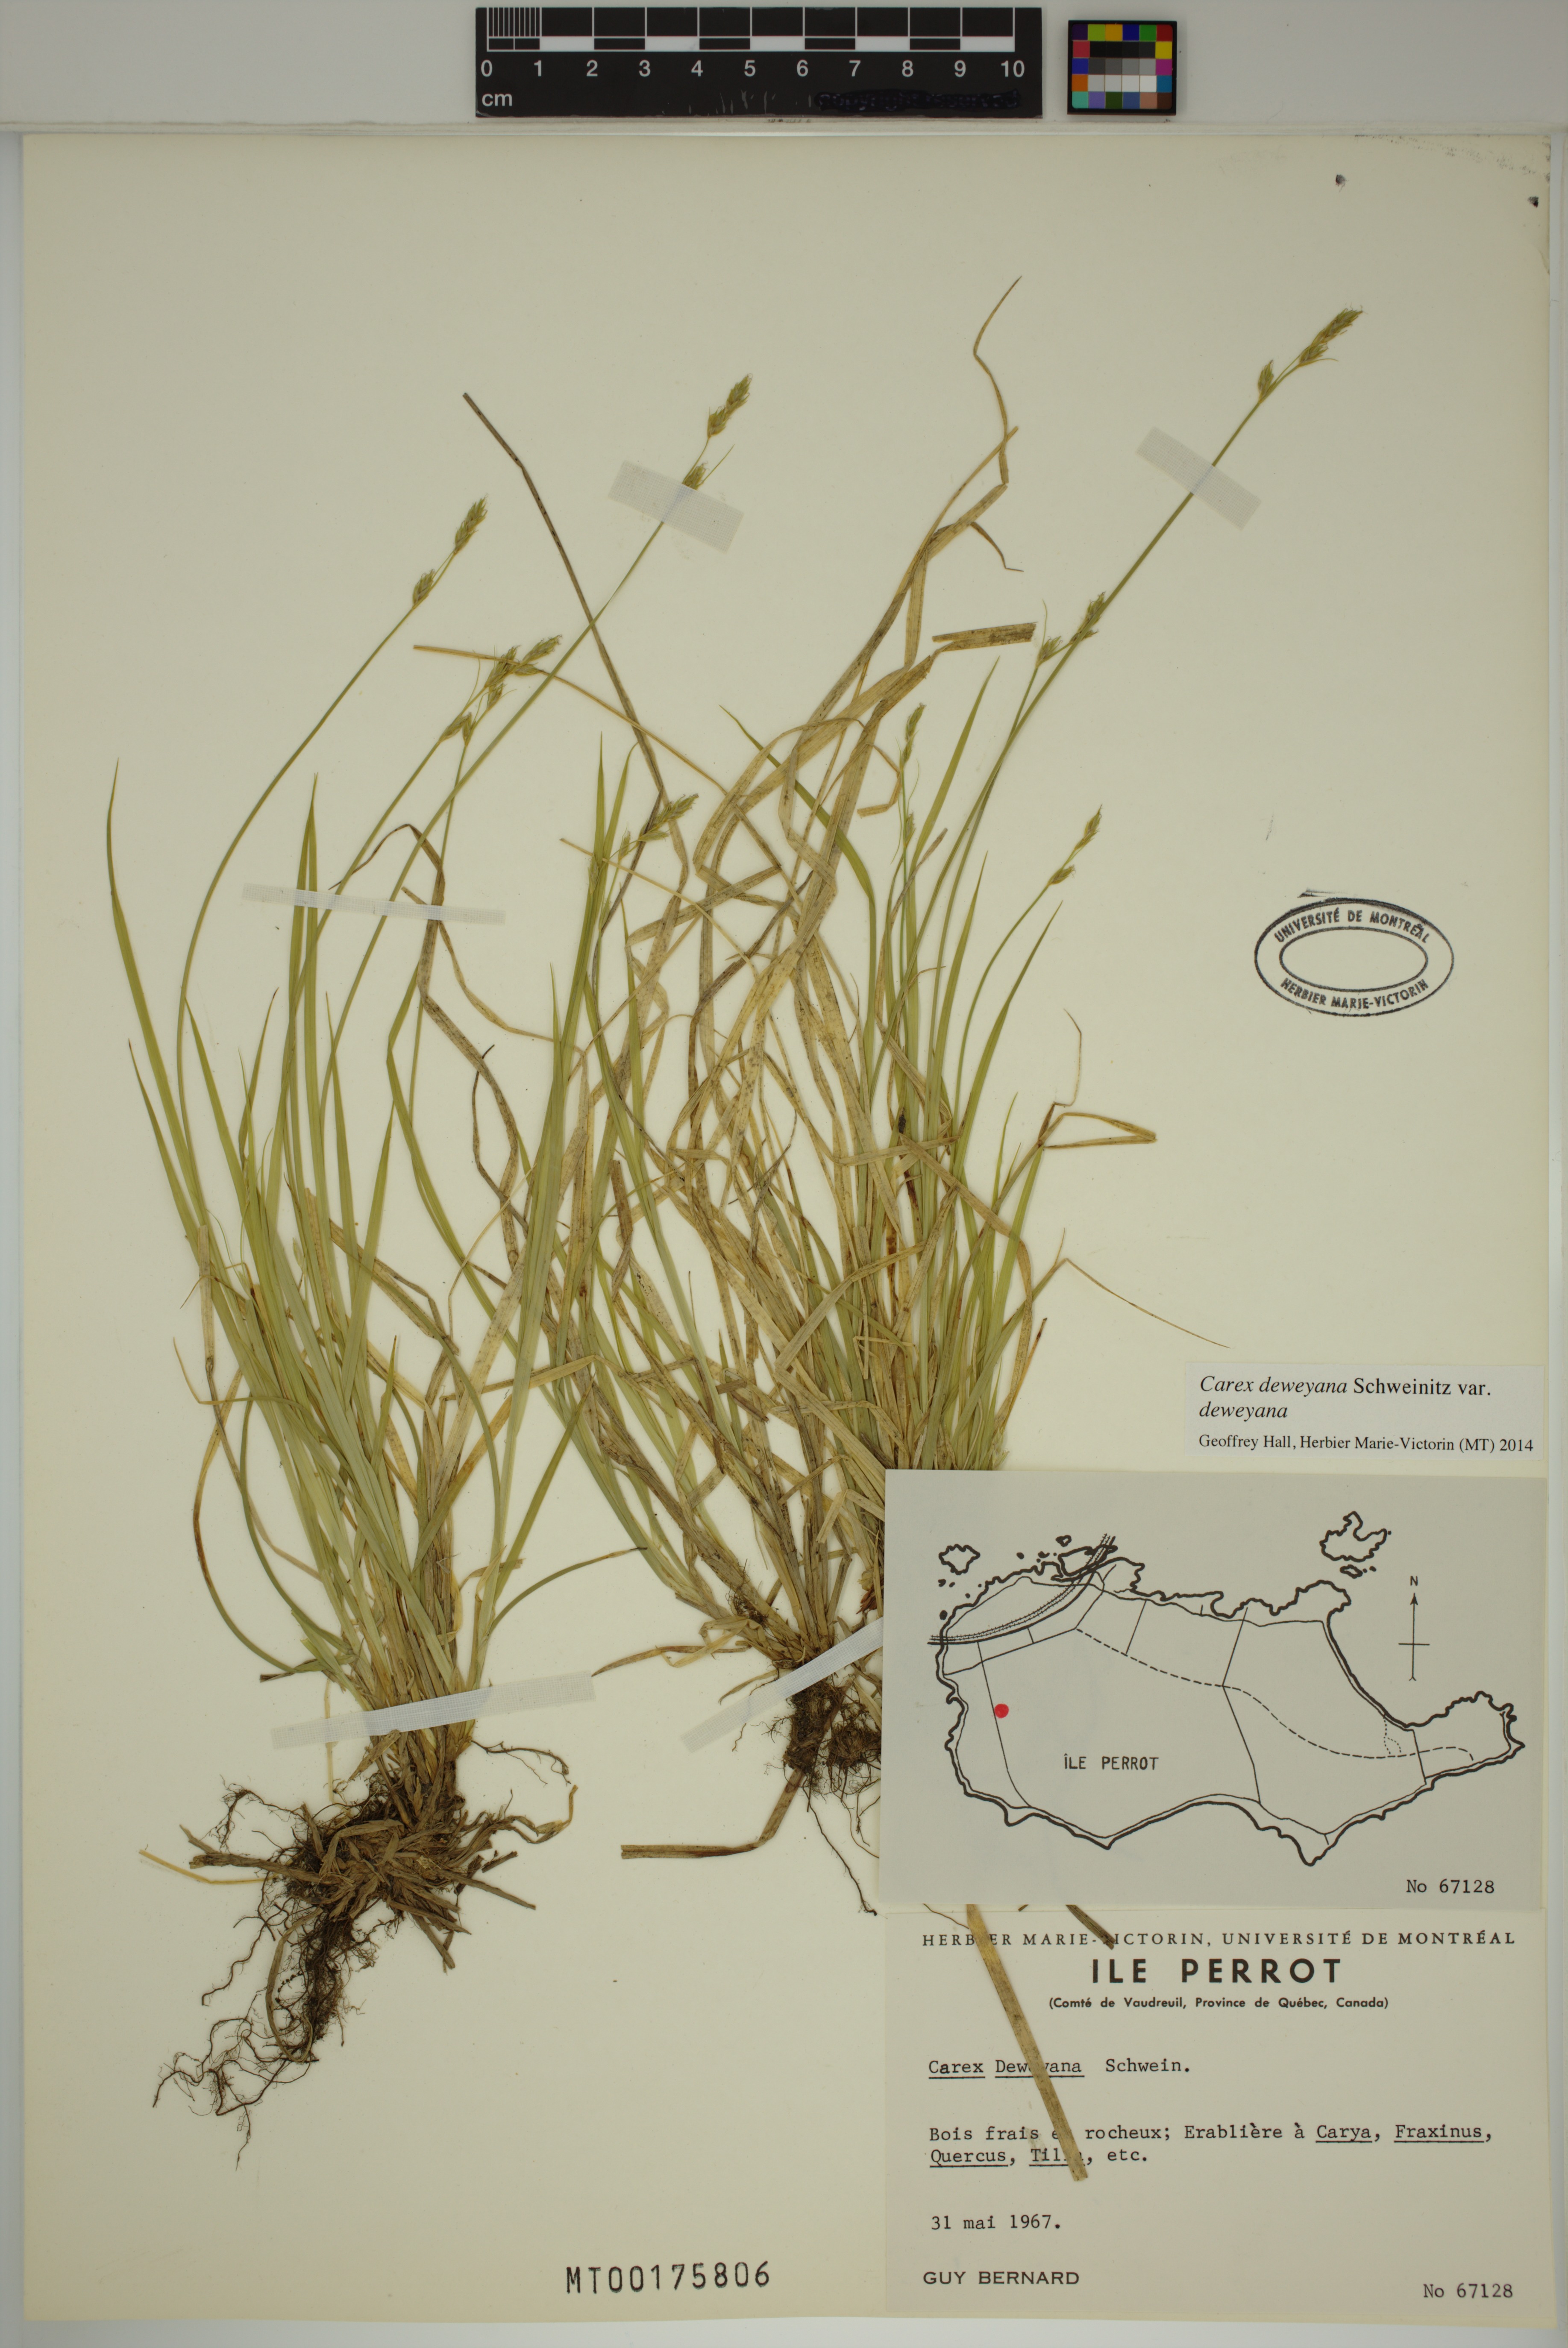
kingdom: Plantae
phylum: Tracheophyta
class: Liliopsida
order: Poales
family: Cyperaceae
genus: Carex
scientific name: Carex deweyana
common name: Dewey's sedge
